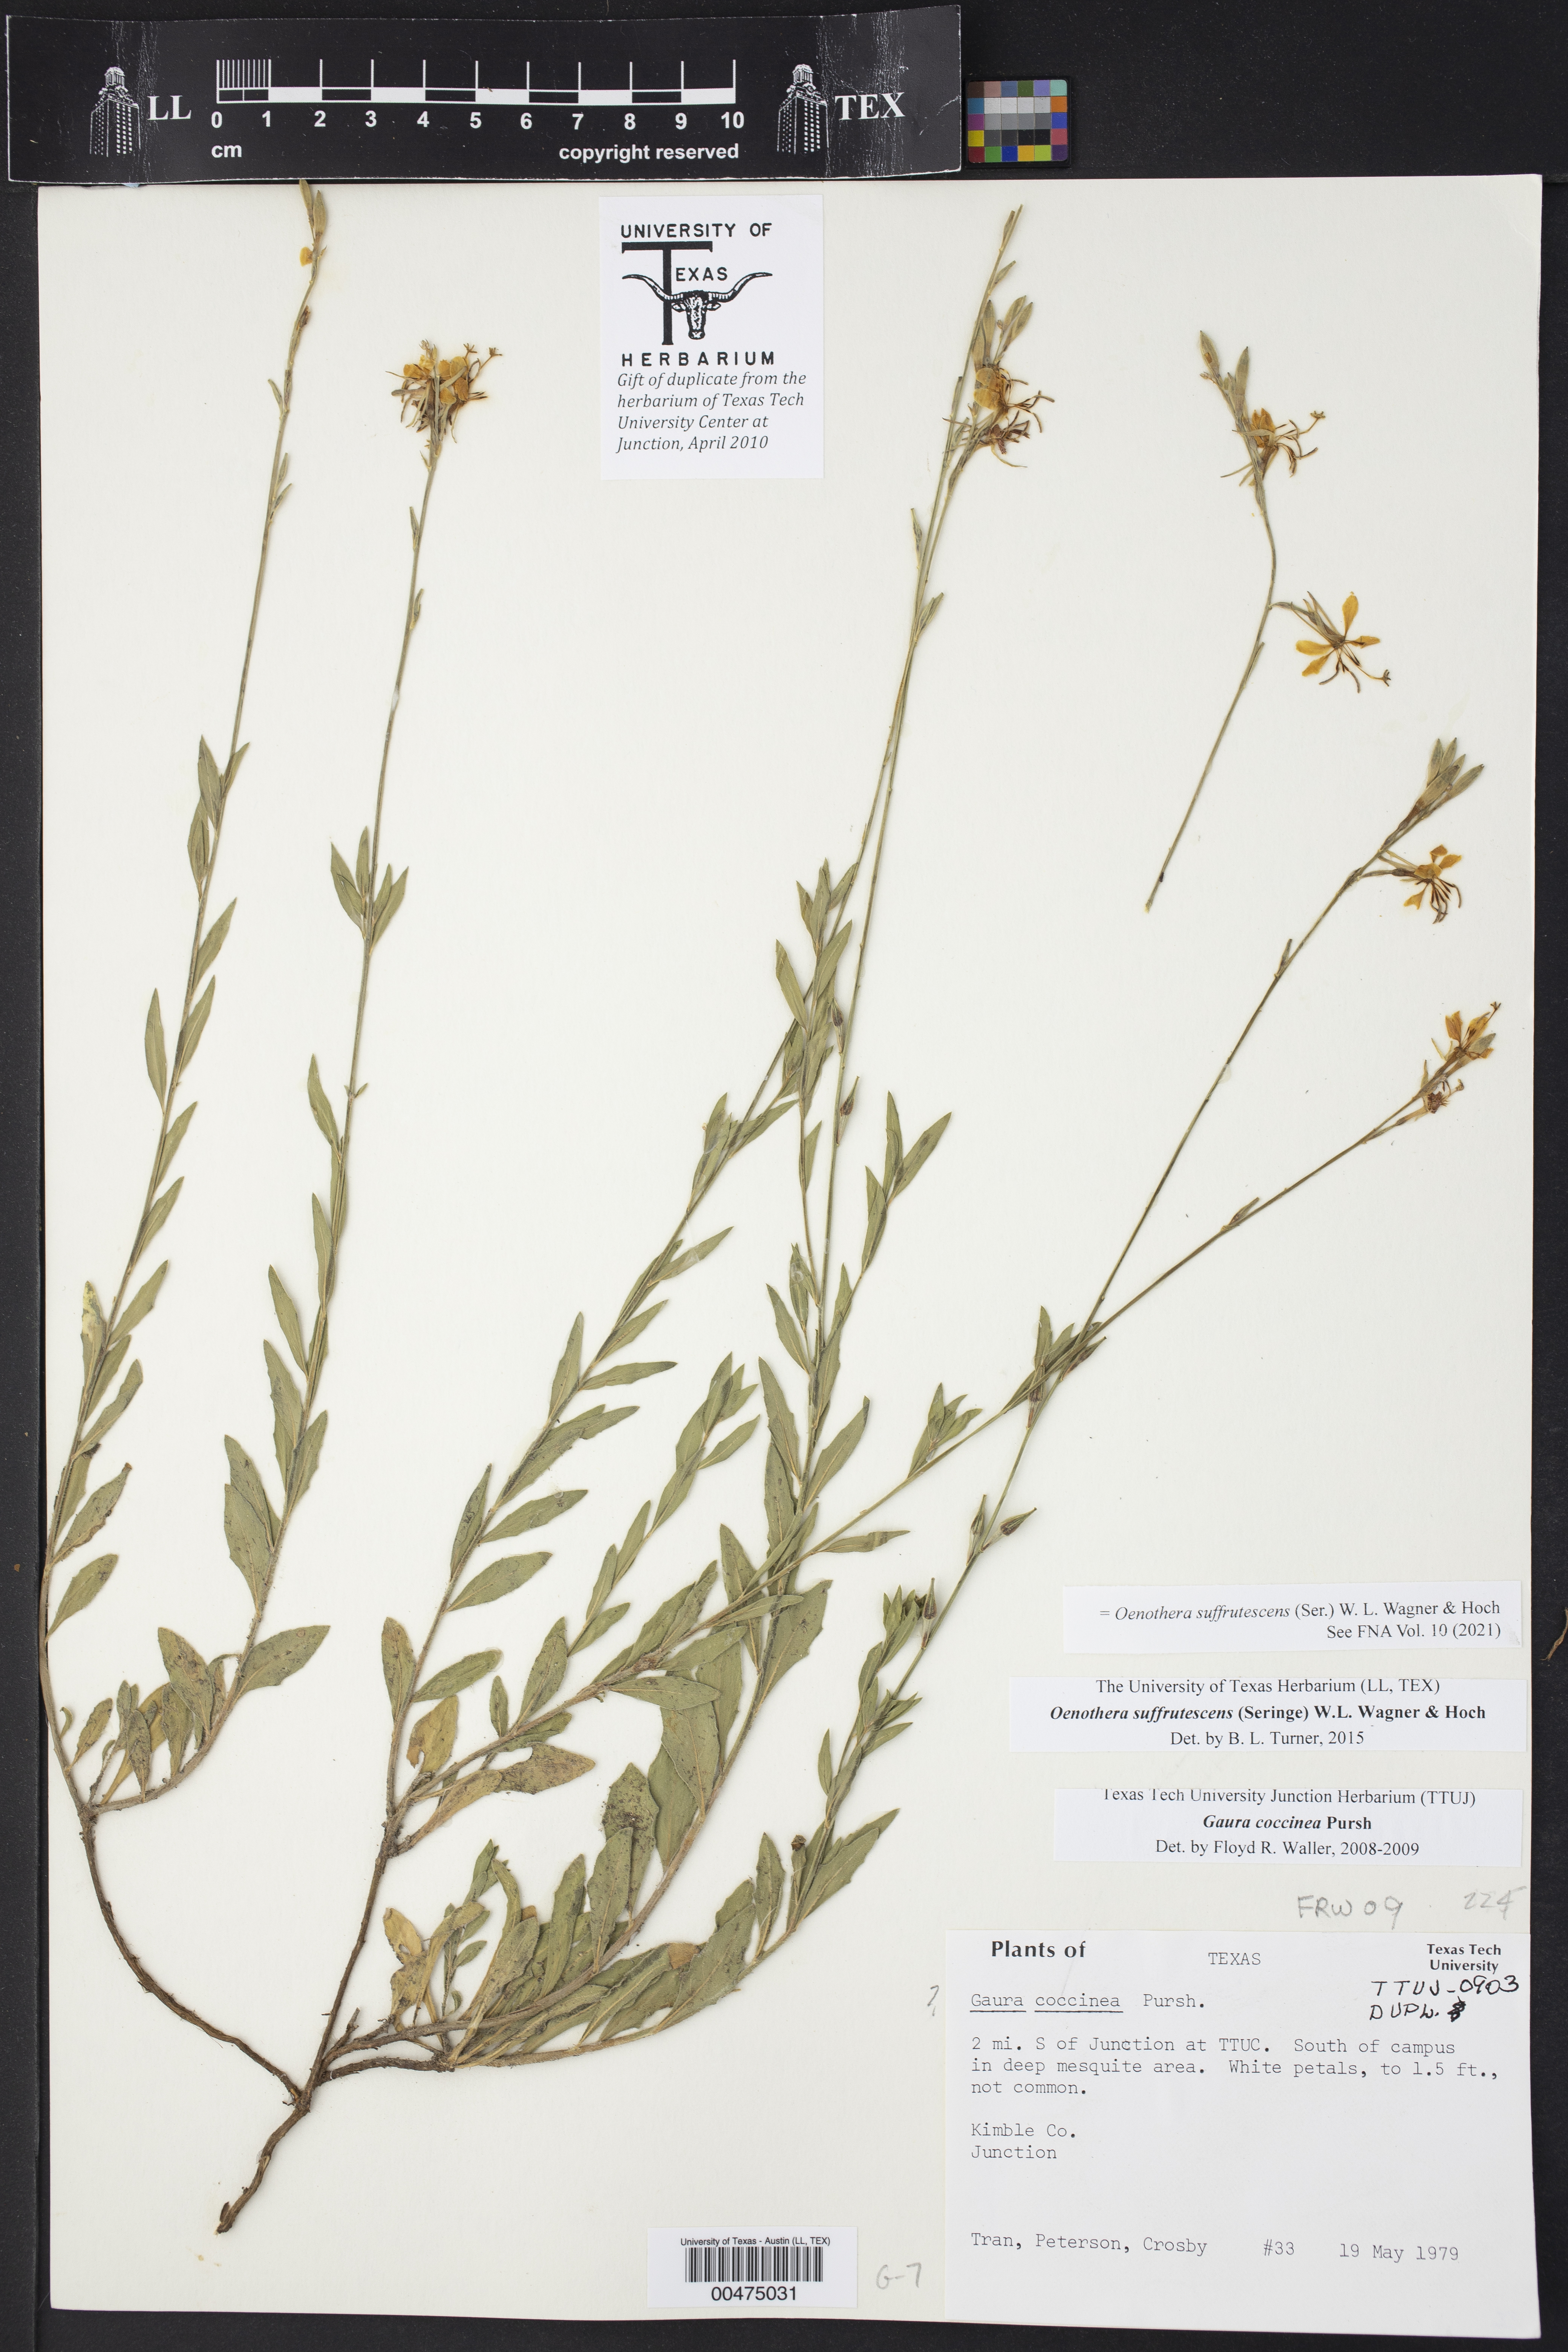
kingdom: Plantae
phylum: Tracheophyta
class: Magnoliopsida
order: Myrtales
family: Onagraceae
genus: Oenothera
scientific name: Oenothera suffrutescens
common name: Scarlet beeblossom
